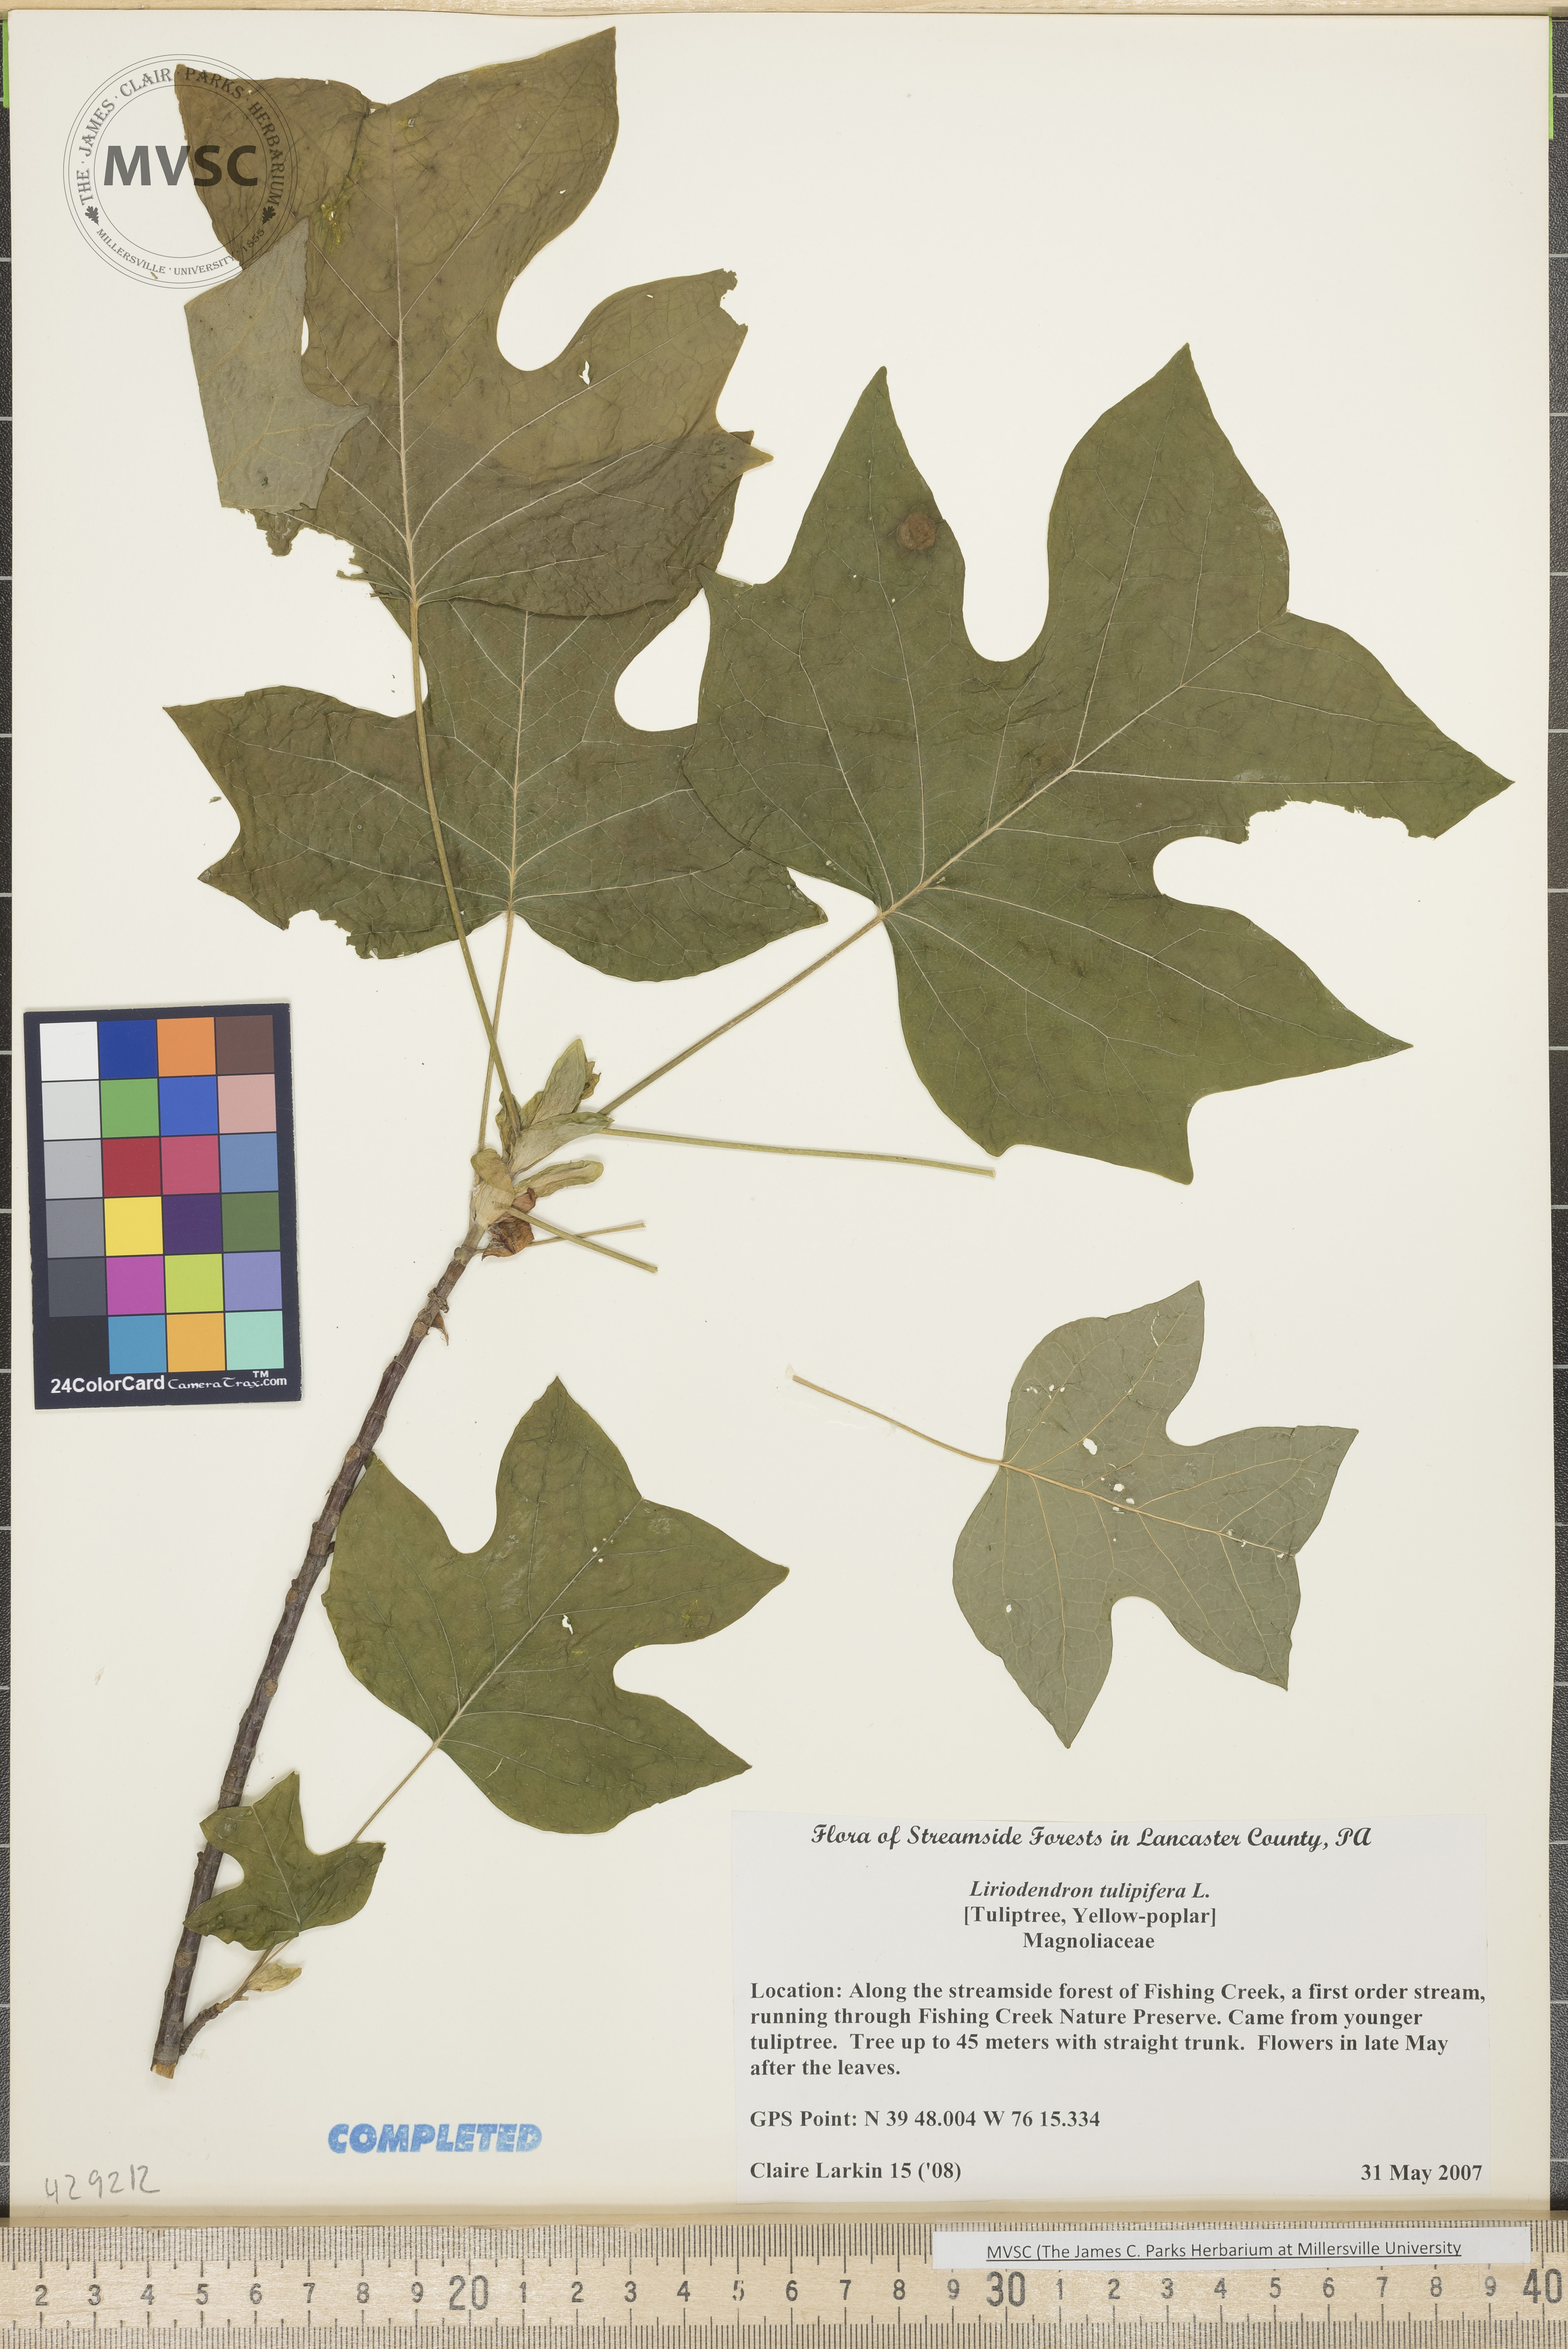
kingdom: Plantae
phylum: Tracheophyta
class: Magnoliopsida
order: Magnoliales
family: Magnoliaceae
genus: Liriodendron
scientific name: Liriodendron tulipifera
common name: Tulip tree
